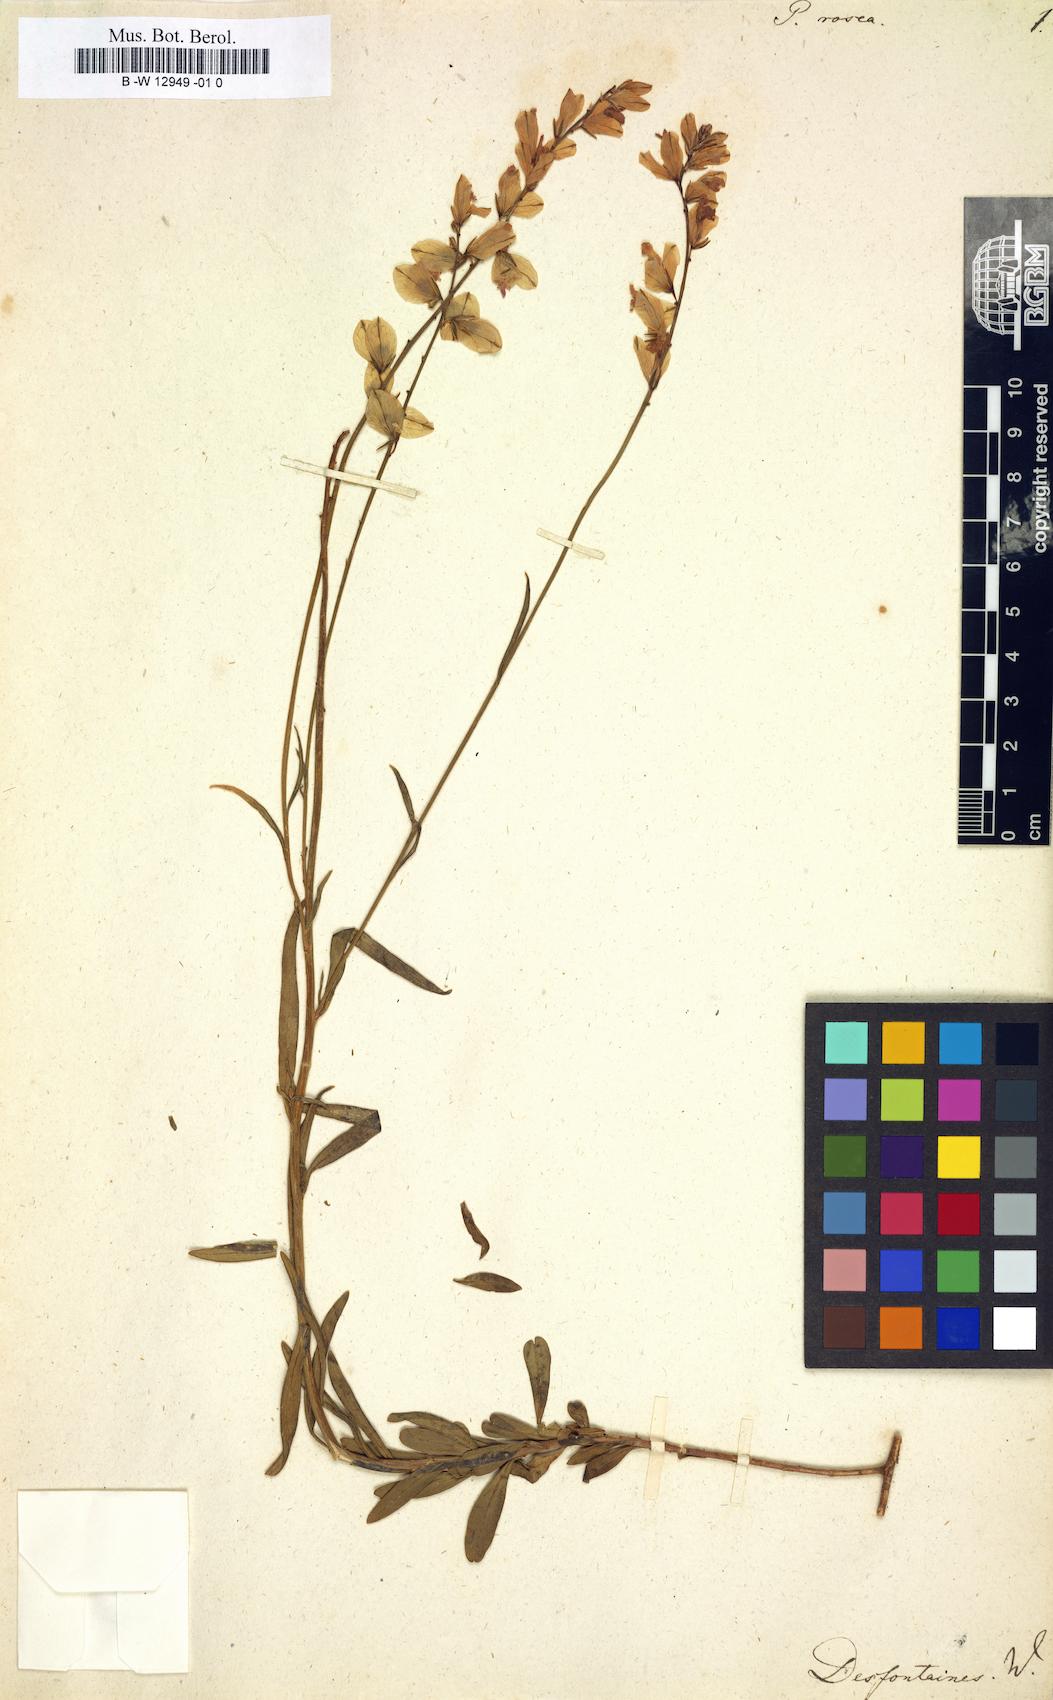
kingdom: Plantae
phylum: Tracheophyta
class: Magnoliopsida
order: Fabales
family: Polygalaceae
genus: Polygala
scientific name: Polygala rosea
